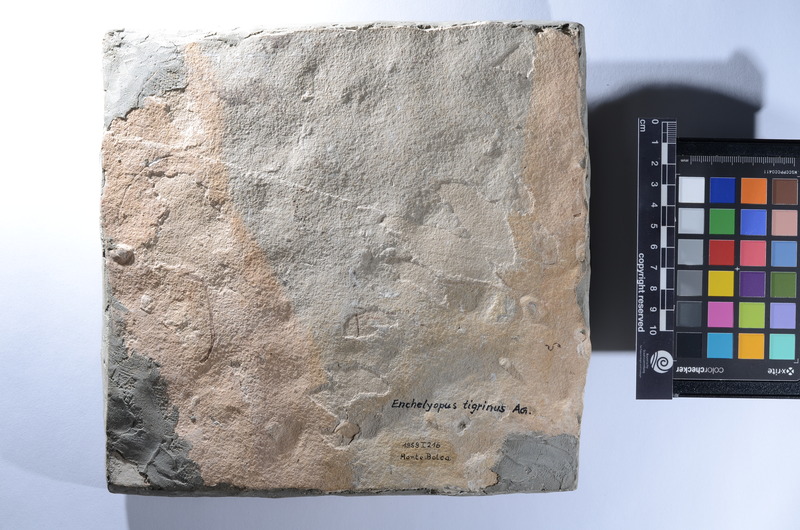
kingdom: Animalia
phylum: Chordata
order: Anguilliformes
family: Paranguillidae
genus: Paranguilla
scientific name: Paranguilla tigrina
